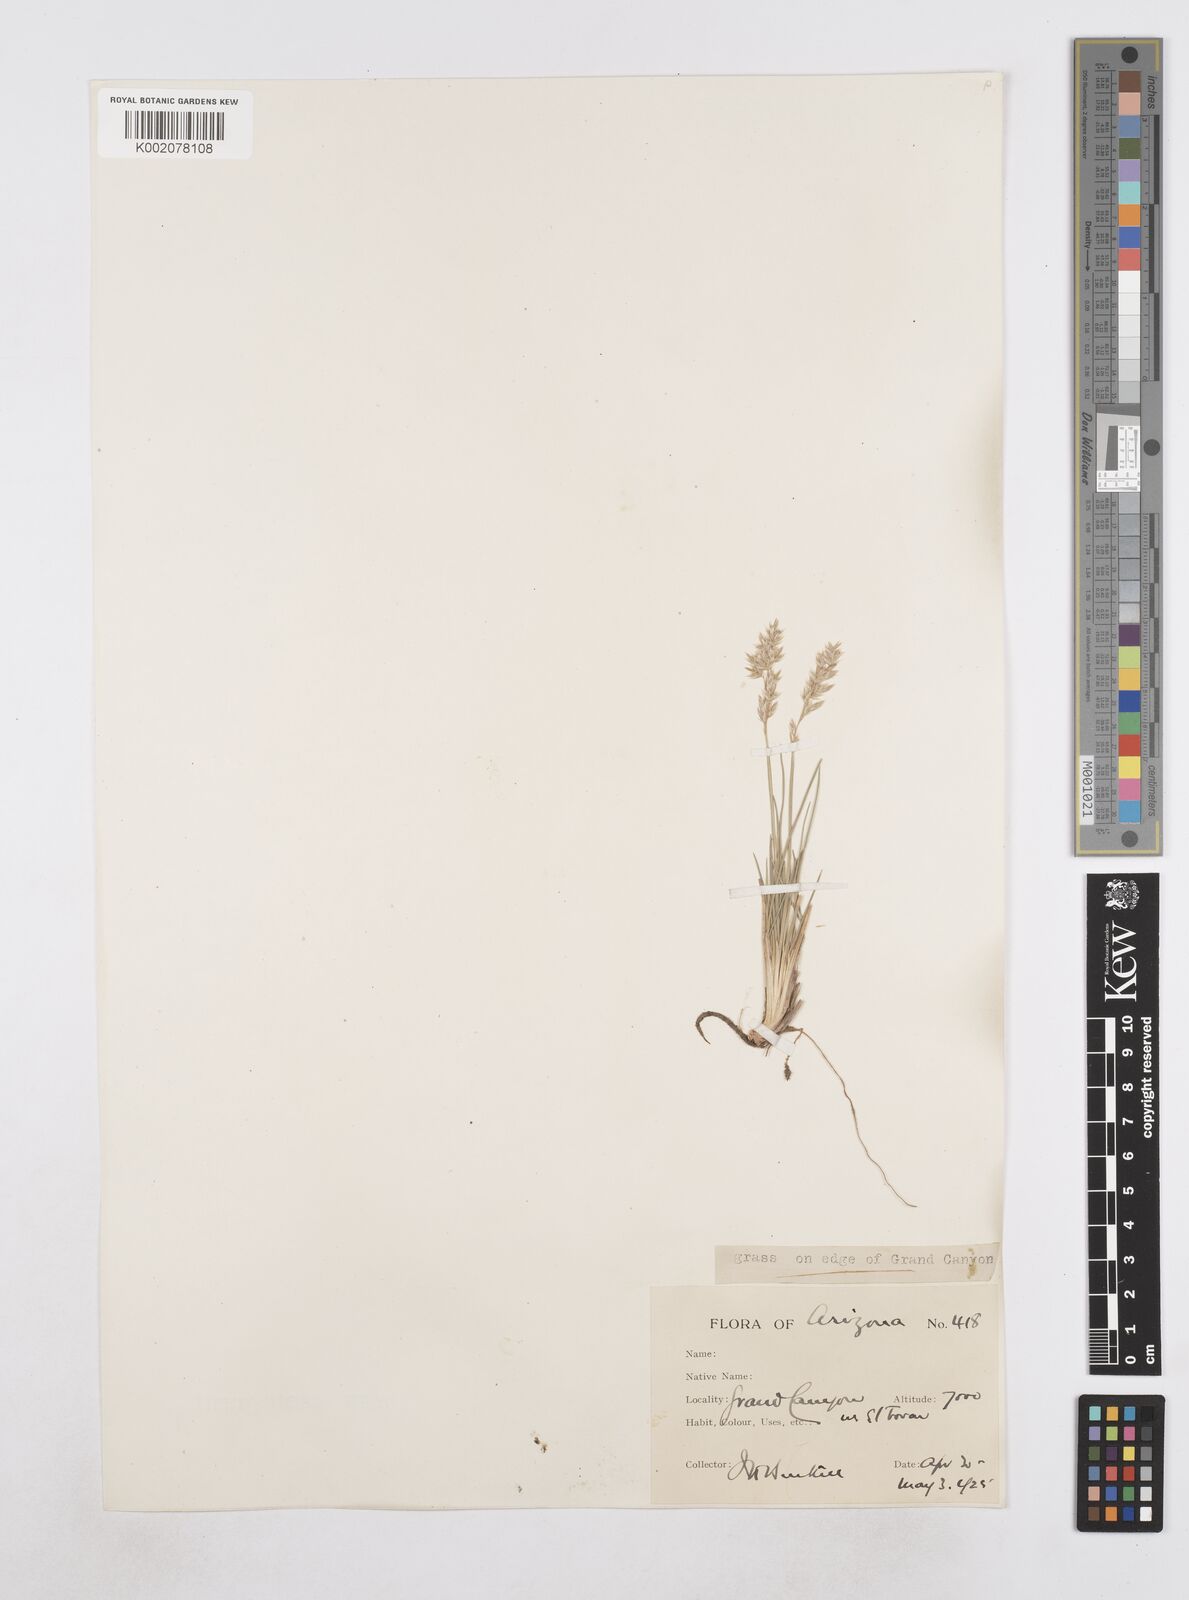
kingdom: Plantae
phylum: Tracheophyta
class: Liliopsida
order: Poales
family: Poaceae
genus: Poa
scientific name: Poa
